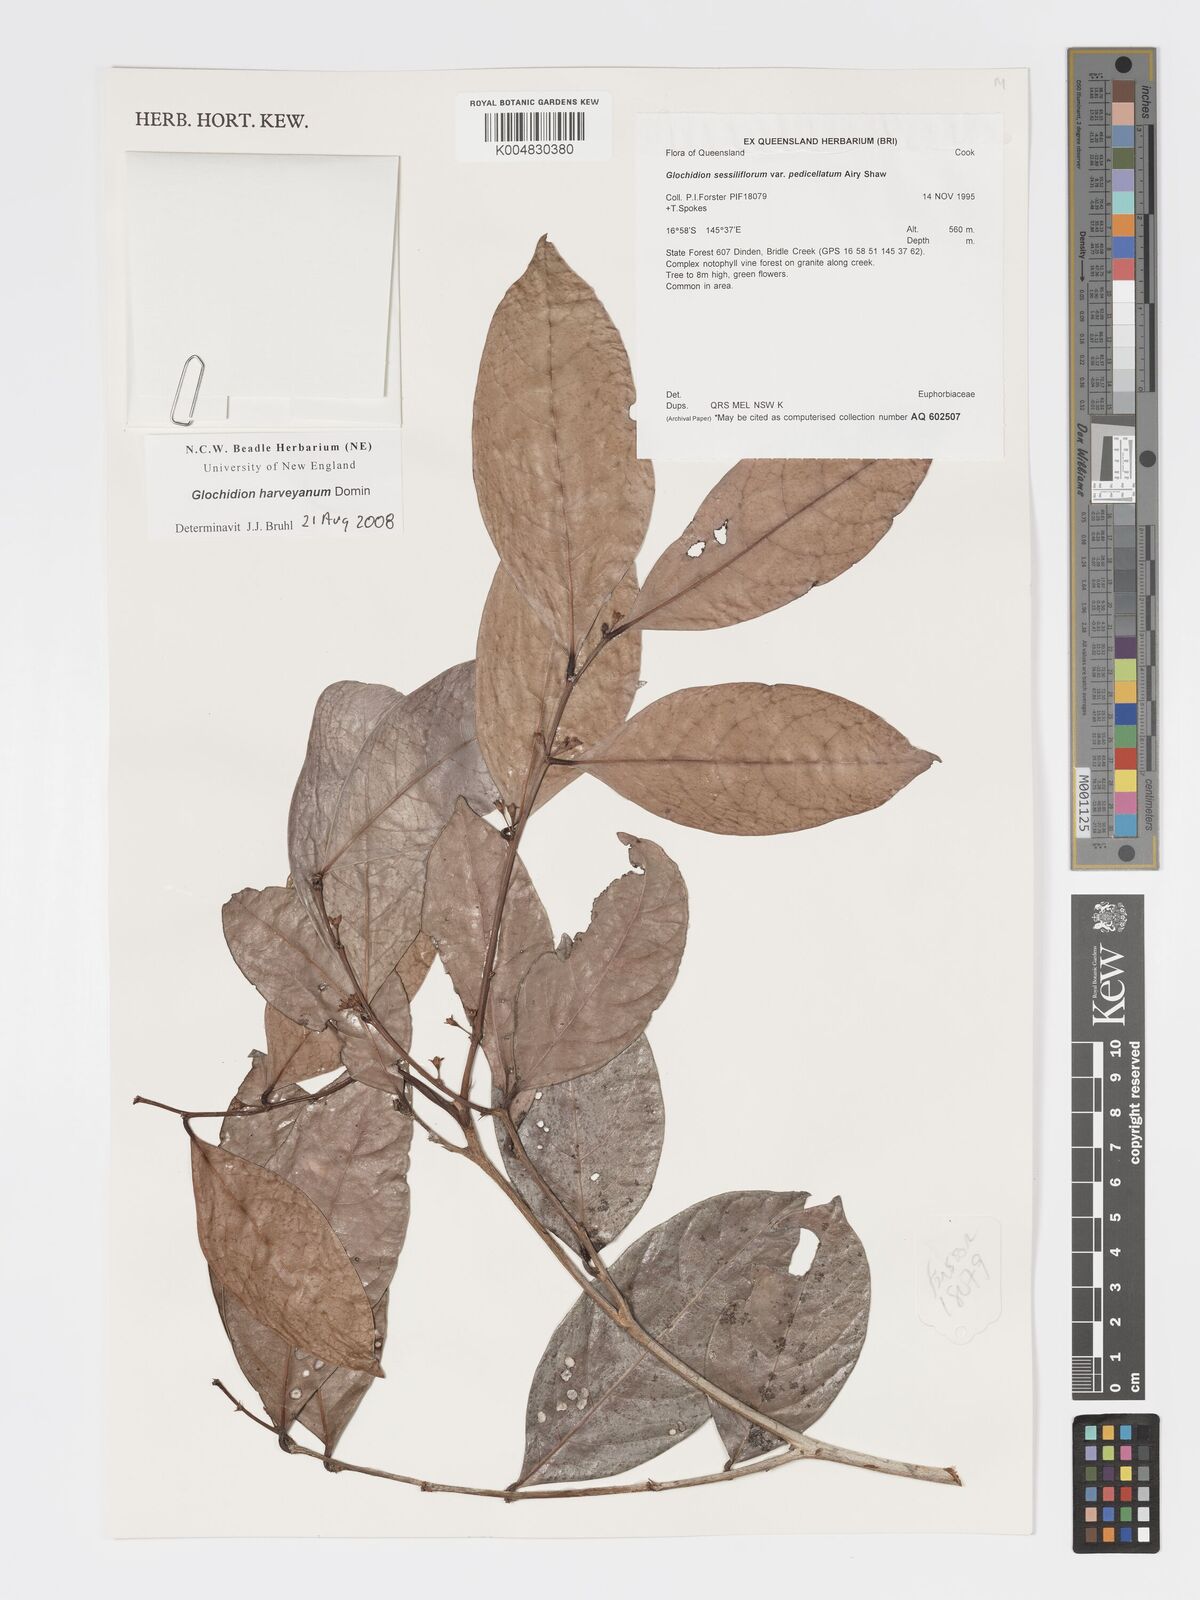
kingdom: Plantae
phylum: Tracheophyta
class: Magnoliopsida
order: Malpighiales
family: Phyllanthaceae
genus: Glochidion
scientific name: Glochidion harveyanum
